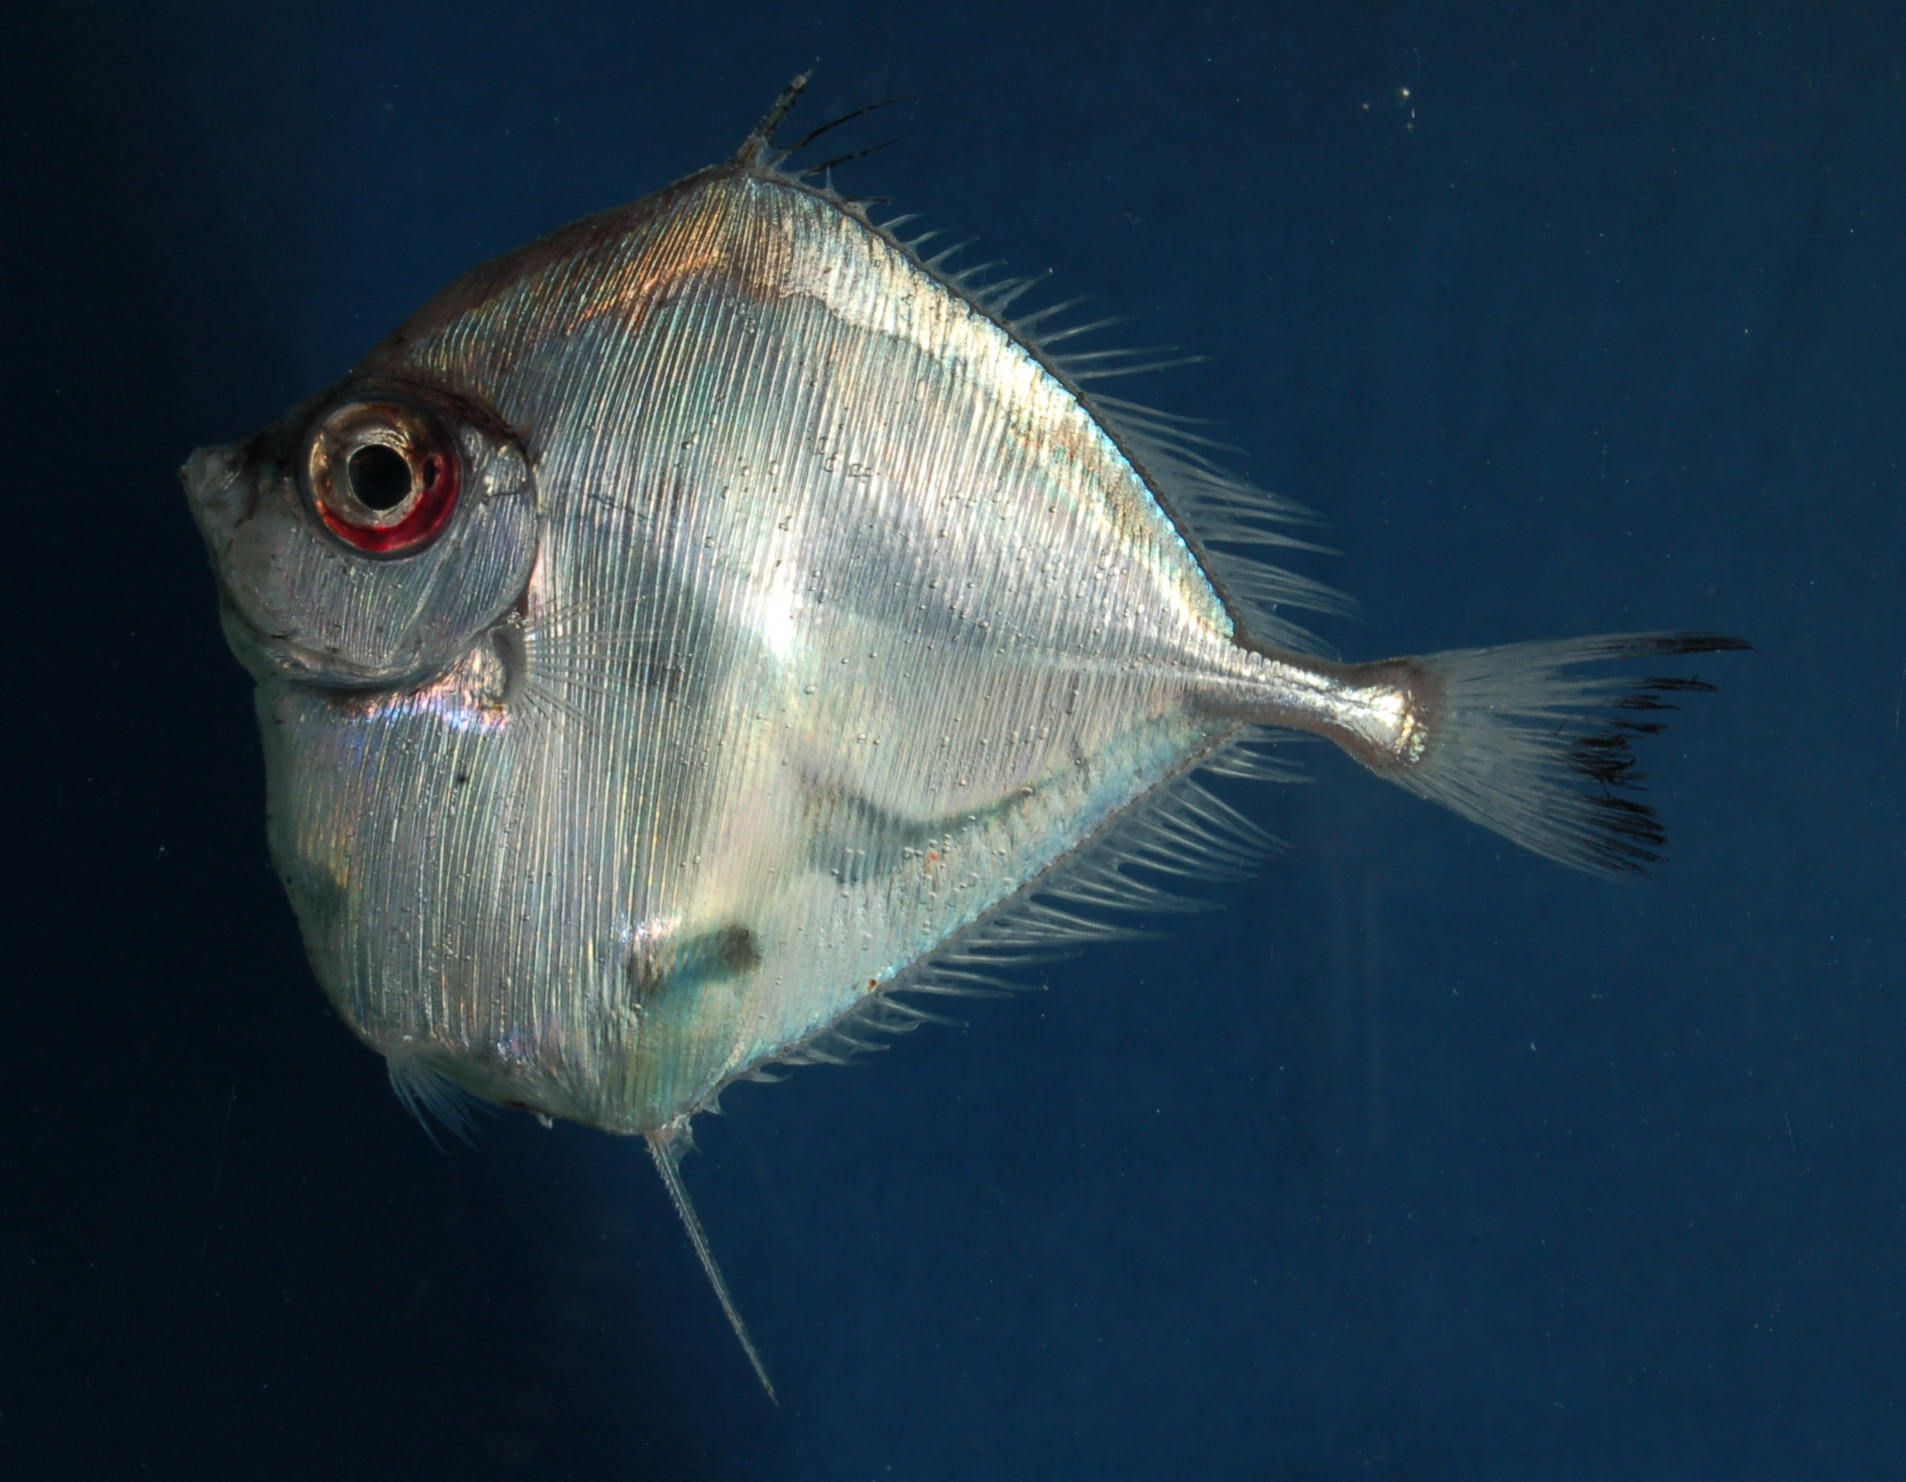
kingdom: Animalia
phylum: Chordata
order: Zeiformes
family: Grammicolepididae
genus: Xenolepidichthys
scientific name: Xenolepidichthys dalgleishi
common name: Spotted tinselfish
